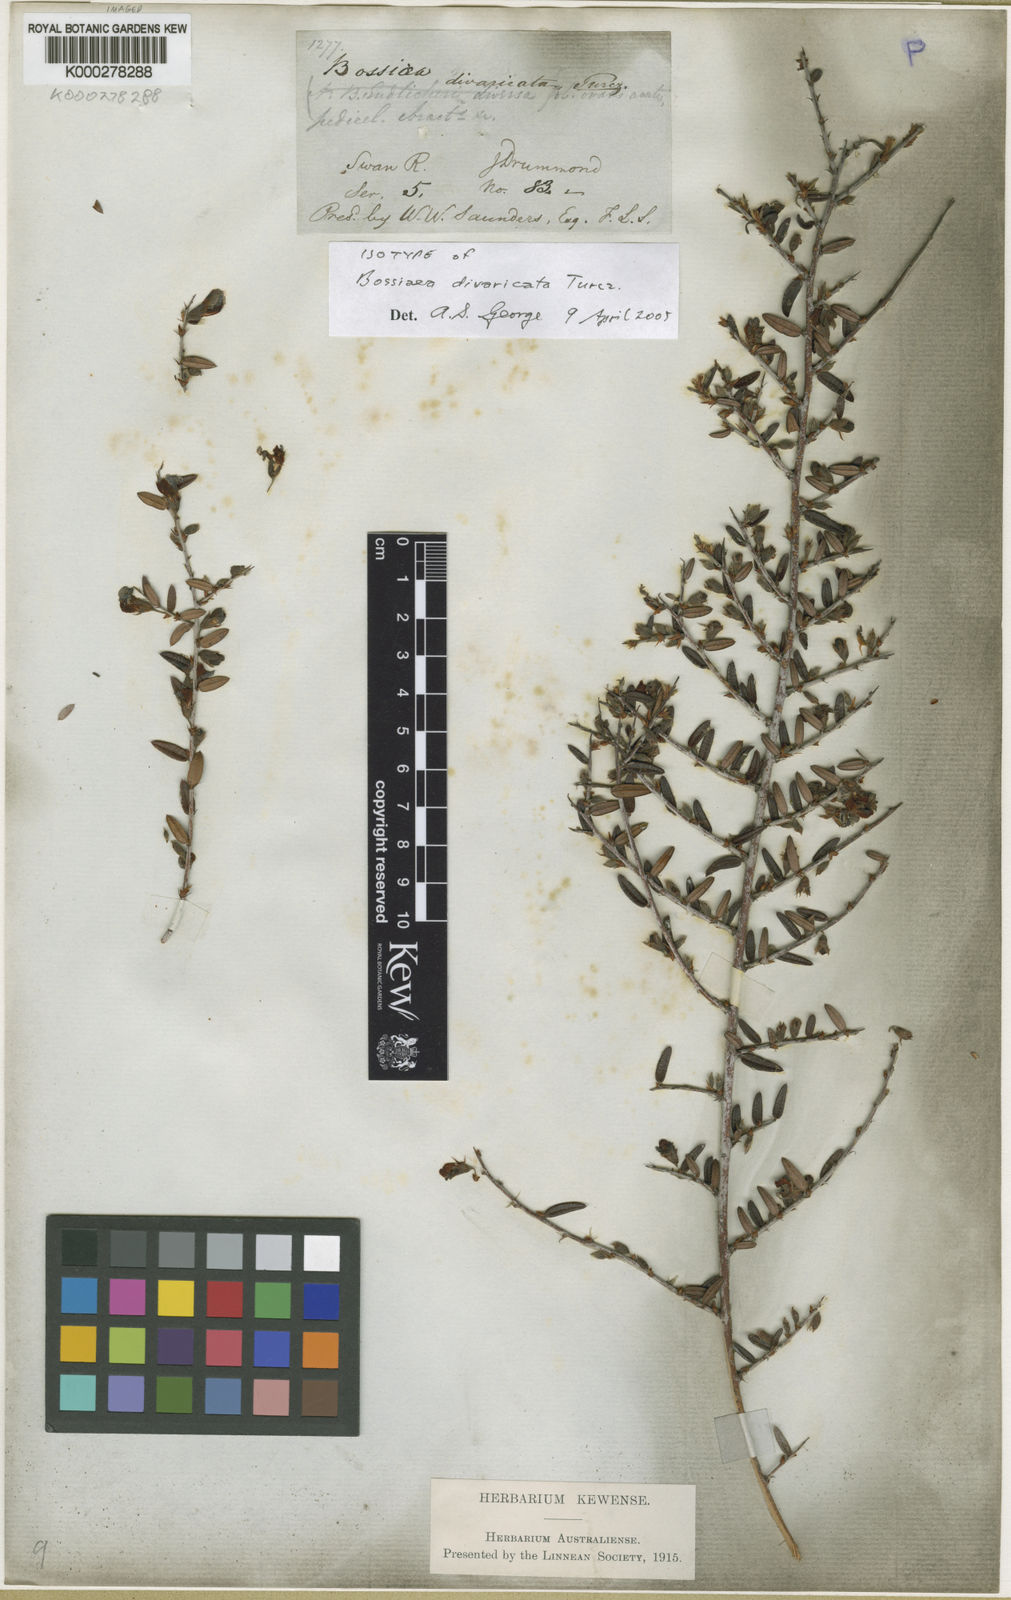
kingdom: Plantae
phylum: Tracheophyta
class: Magnoliopsida
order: Fabales
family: Fabaceae
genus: Bossiaea
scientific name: Bossiaea divaricata
